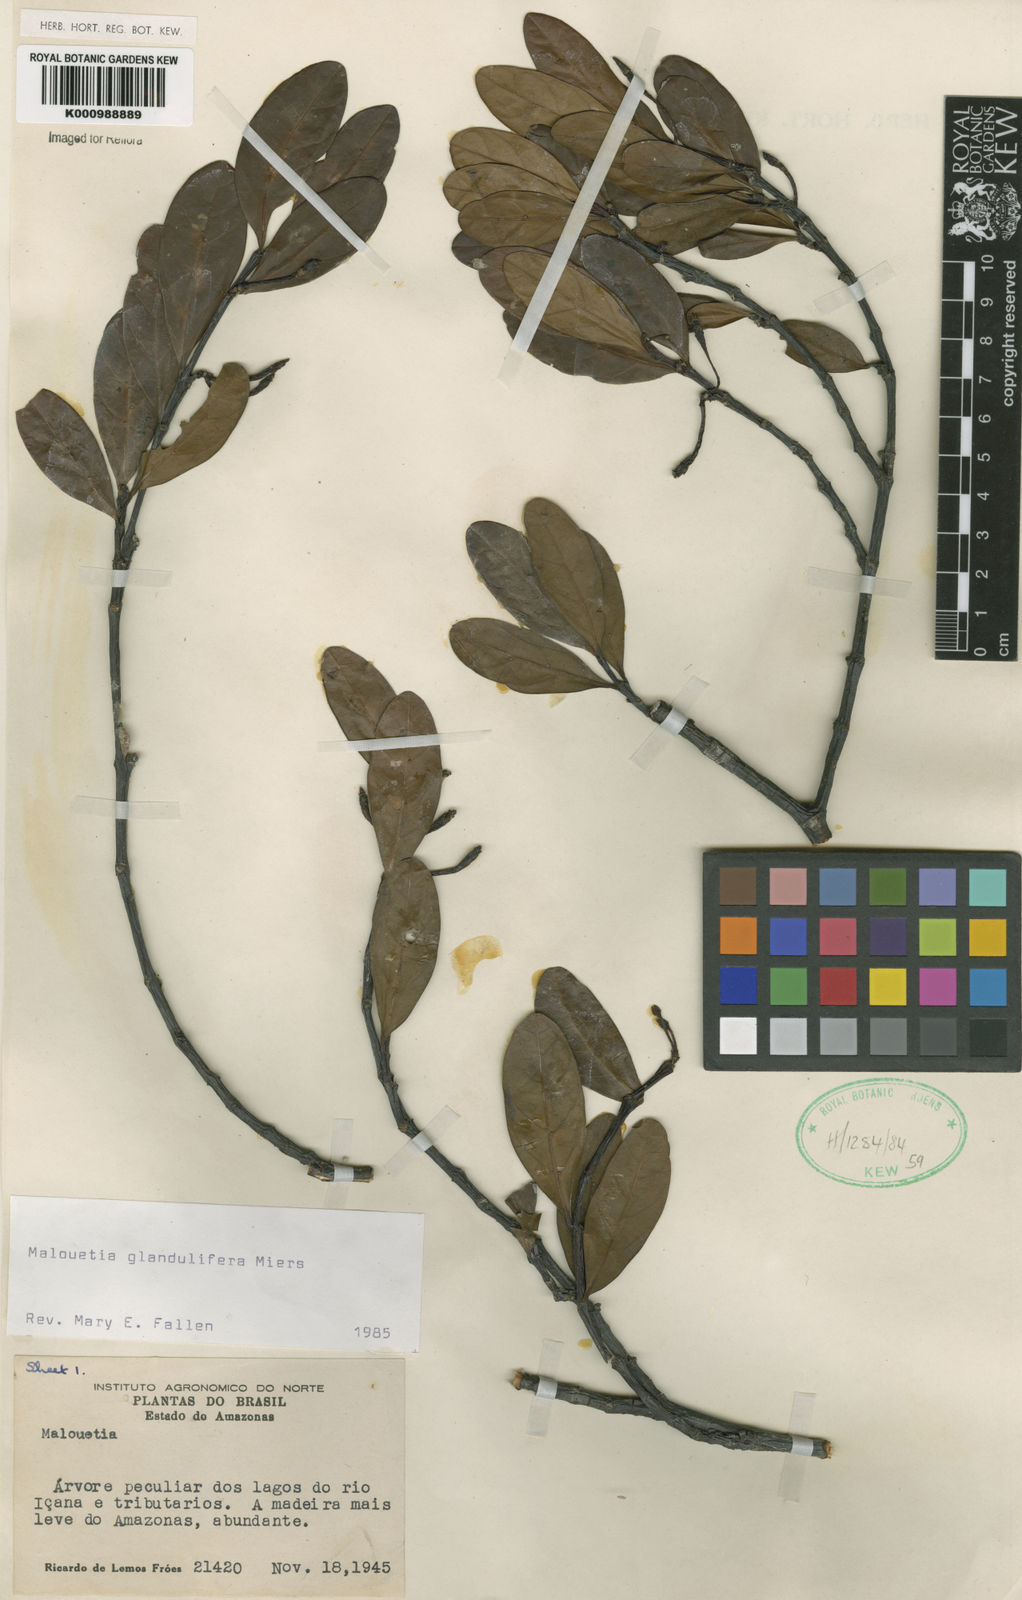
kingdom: Plantae
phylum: Tracheophyta
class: Magnoliopsida
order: Gentianales
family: Apocynaceae
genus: Malouetia
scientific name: Malouetia glandulifera
